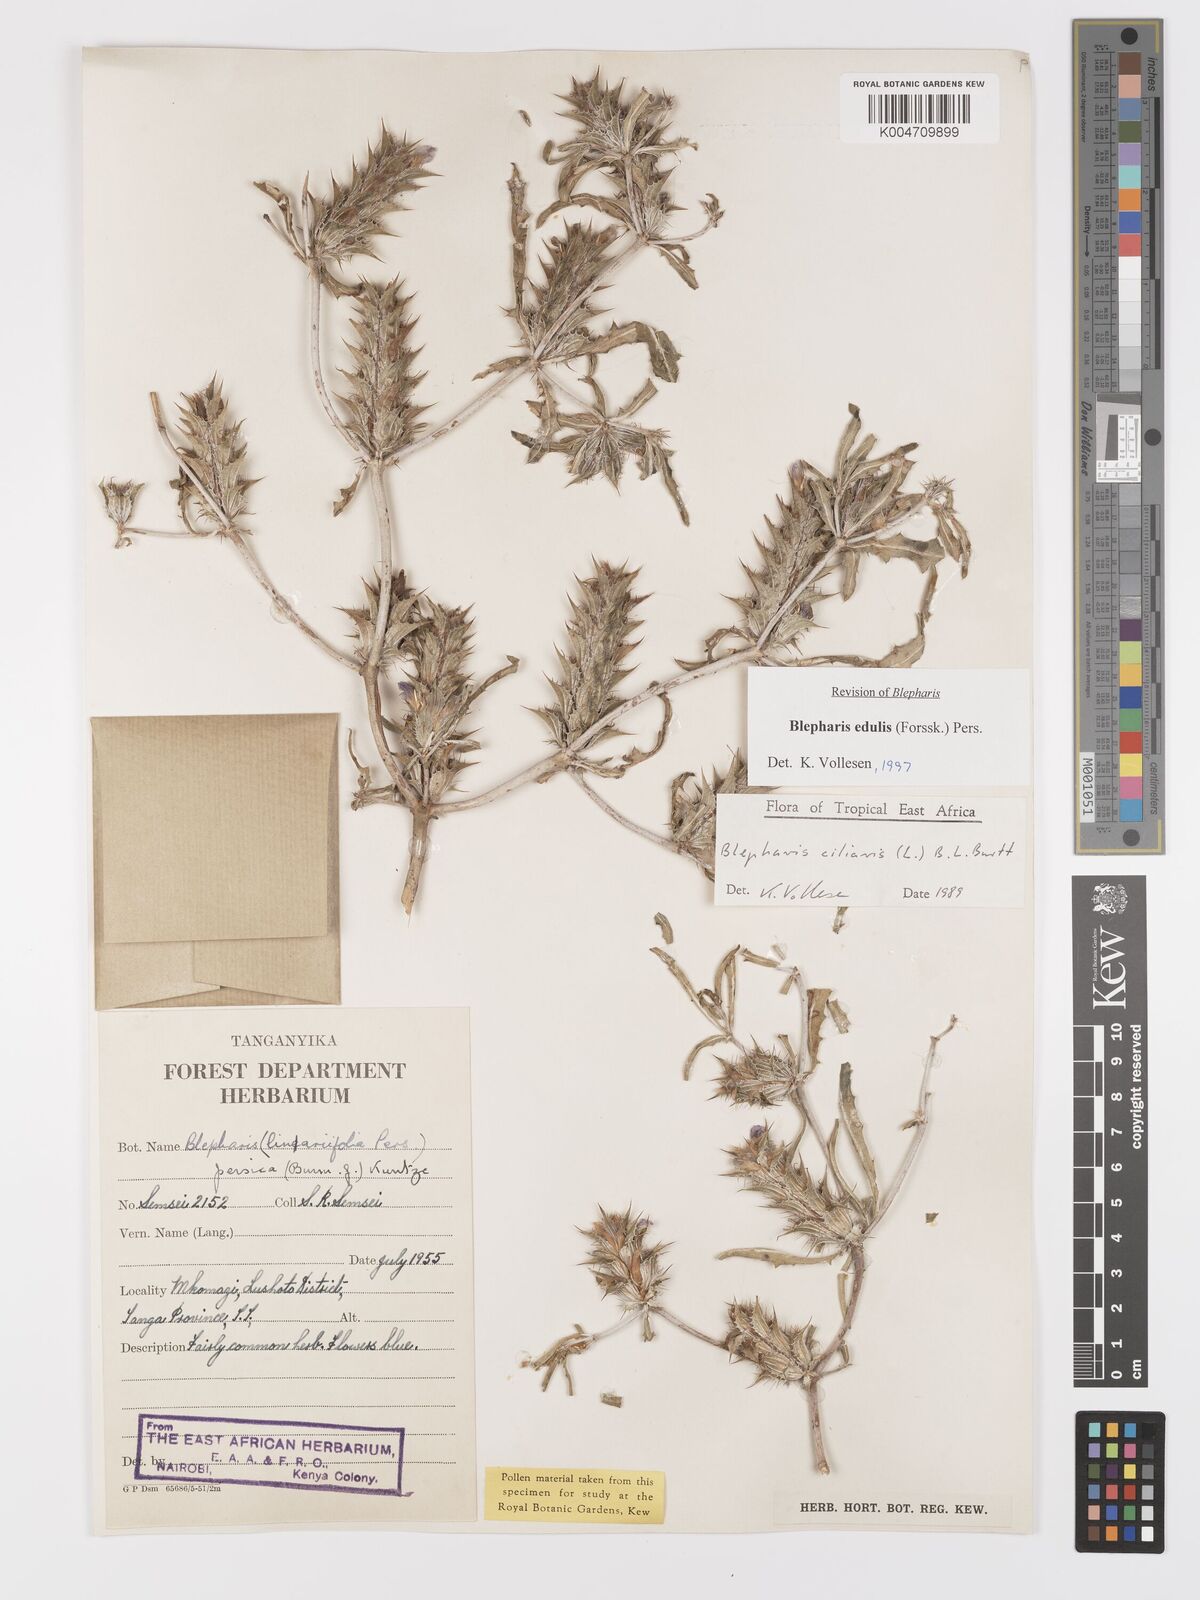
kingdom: Plantae
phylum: Tracheophyta
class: Magnoliopsida
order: Lamiales
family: Acanthaceae
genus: Blepharis
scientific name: Blepharis edulis
